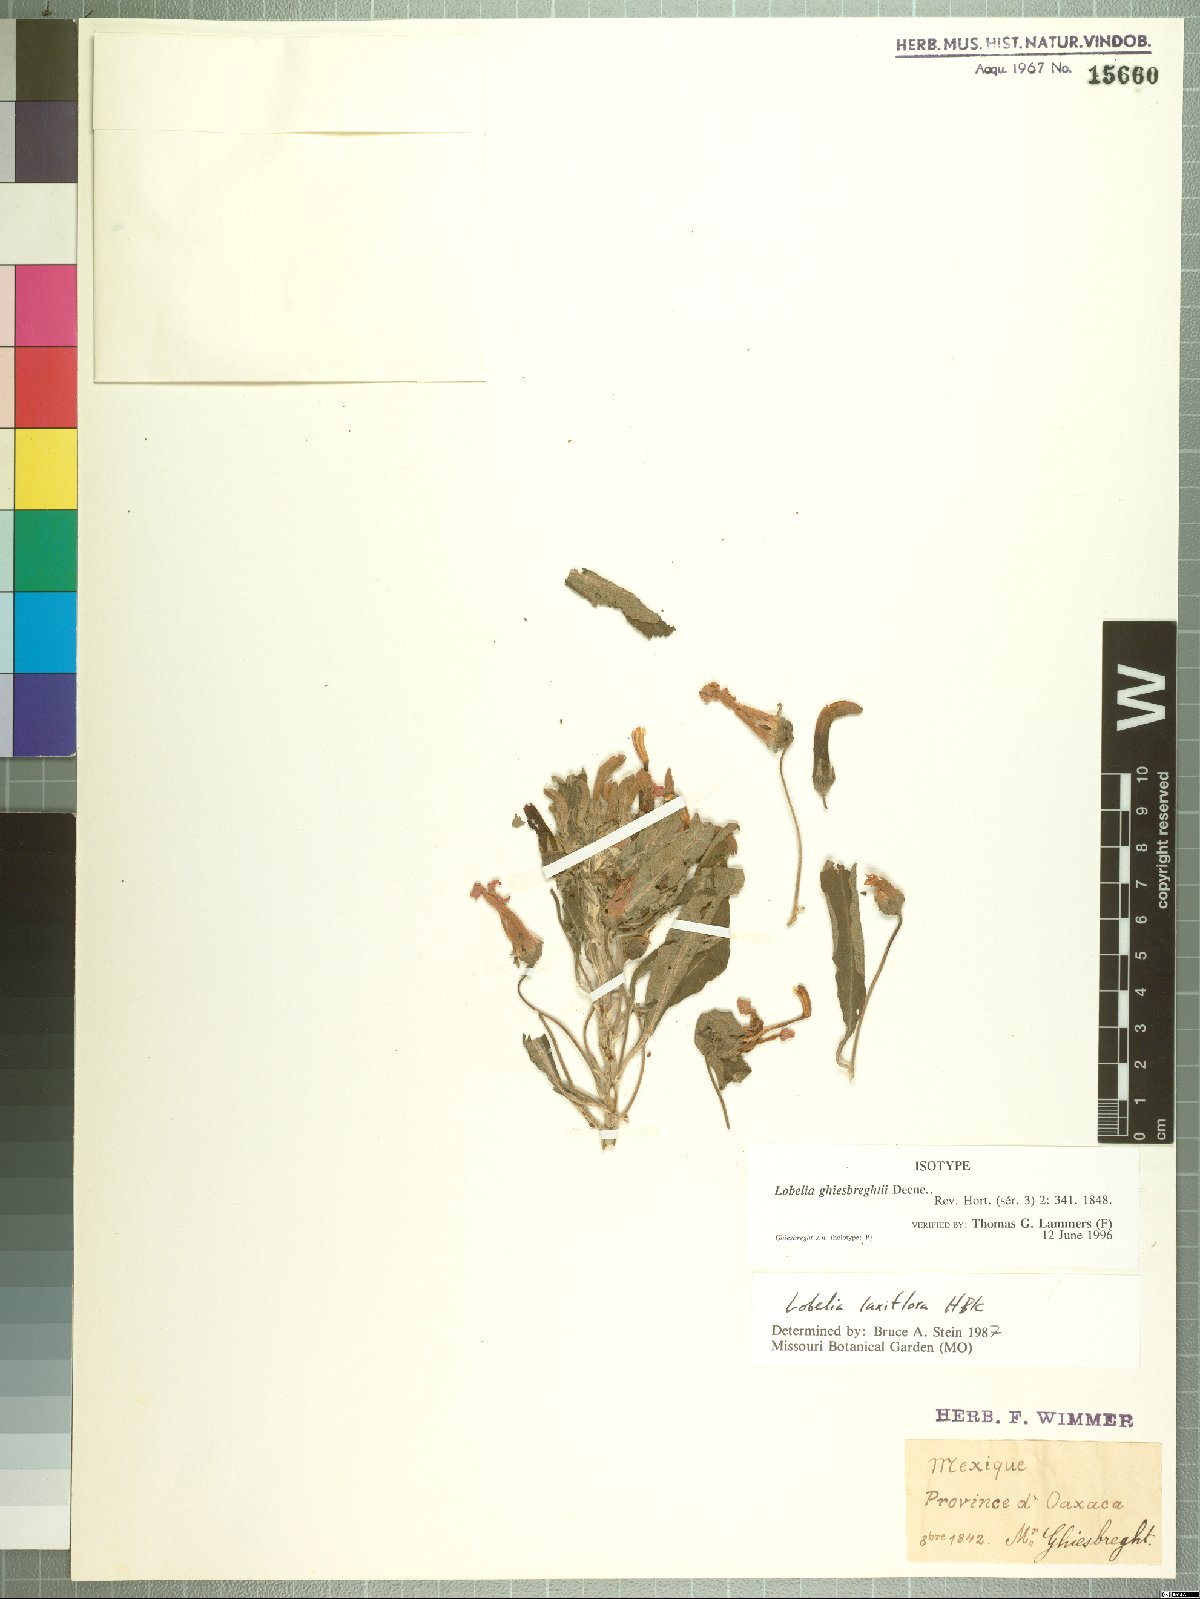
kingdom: Plantae
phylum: Tracheophyta
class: Magnoliopsida
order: Asterales
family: Campanulaceae
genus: Lobelia
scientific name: Lobelia ghiesbreghtii
